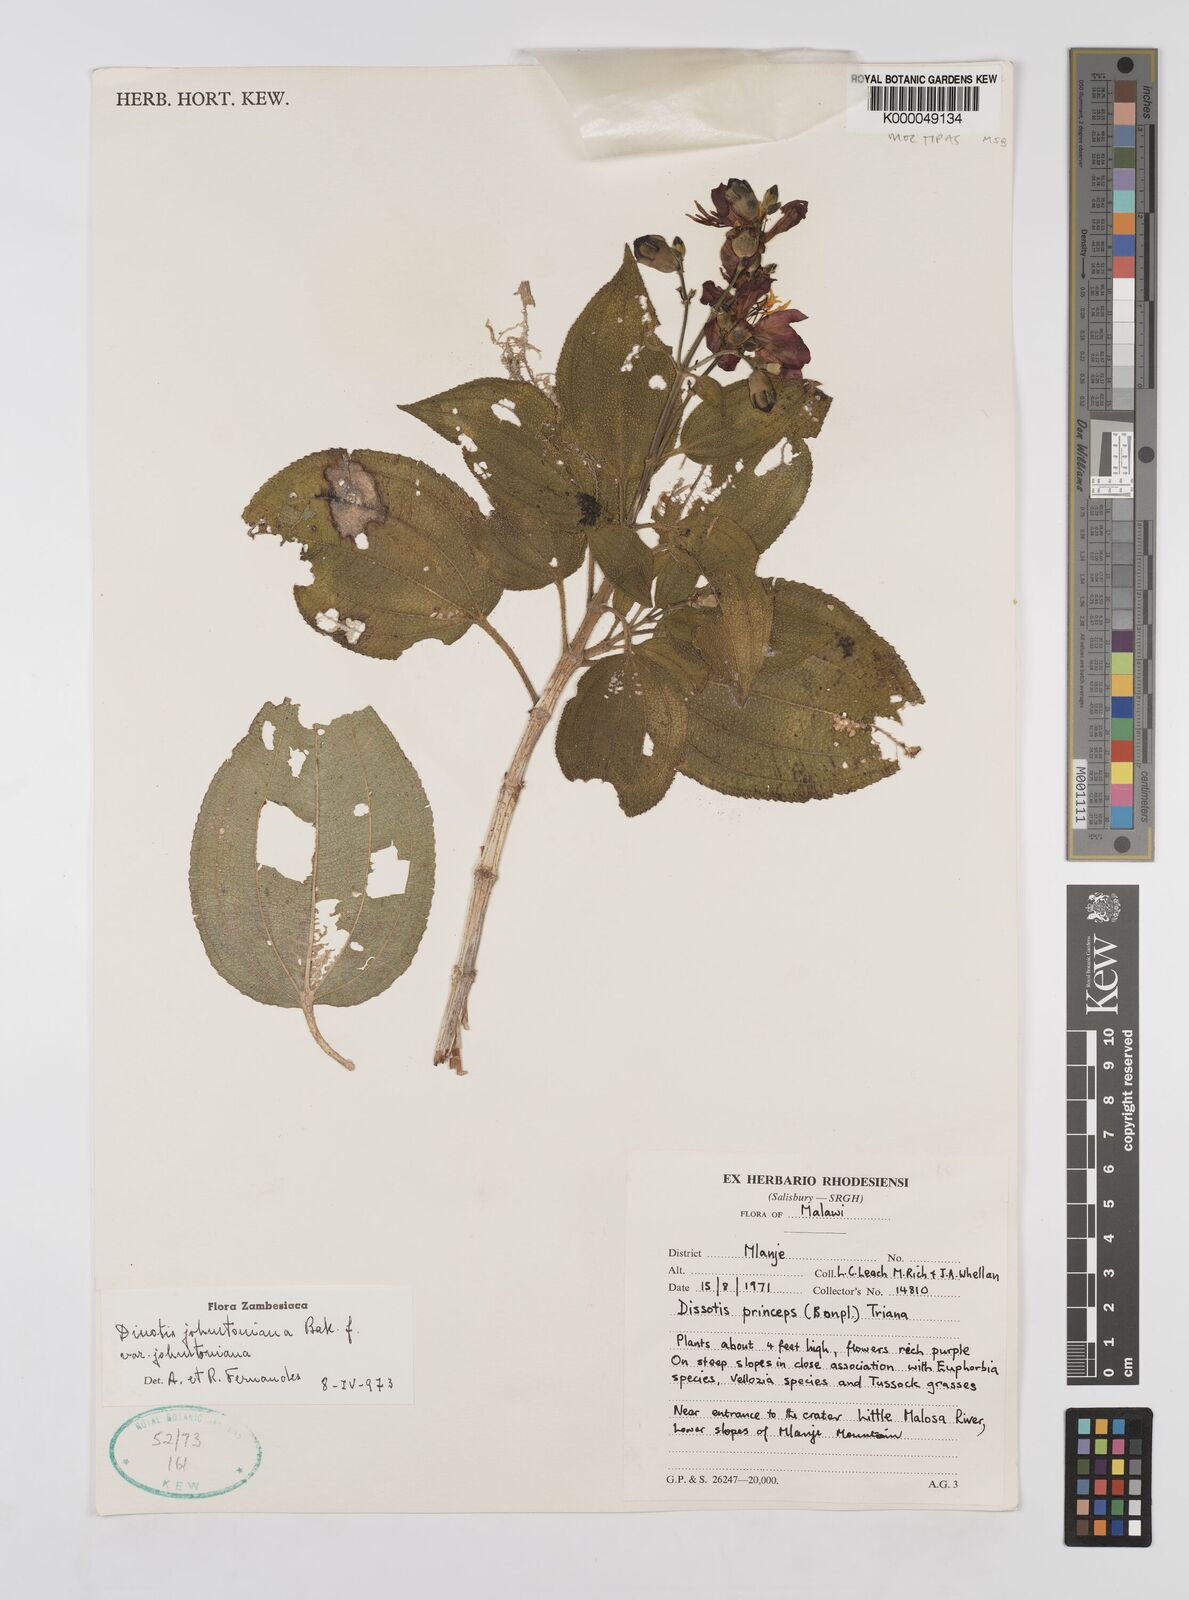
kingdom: Plantae
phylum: Tracheophyta
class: Magnoliopsida
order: Myrtales
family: Melastomataceae
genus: Dissotidendron
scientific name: Dissotidendron johnstonianum
